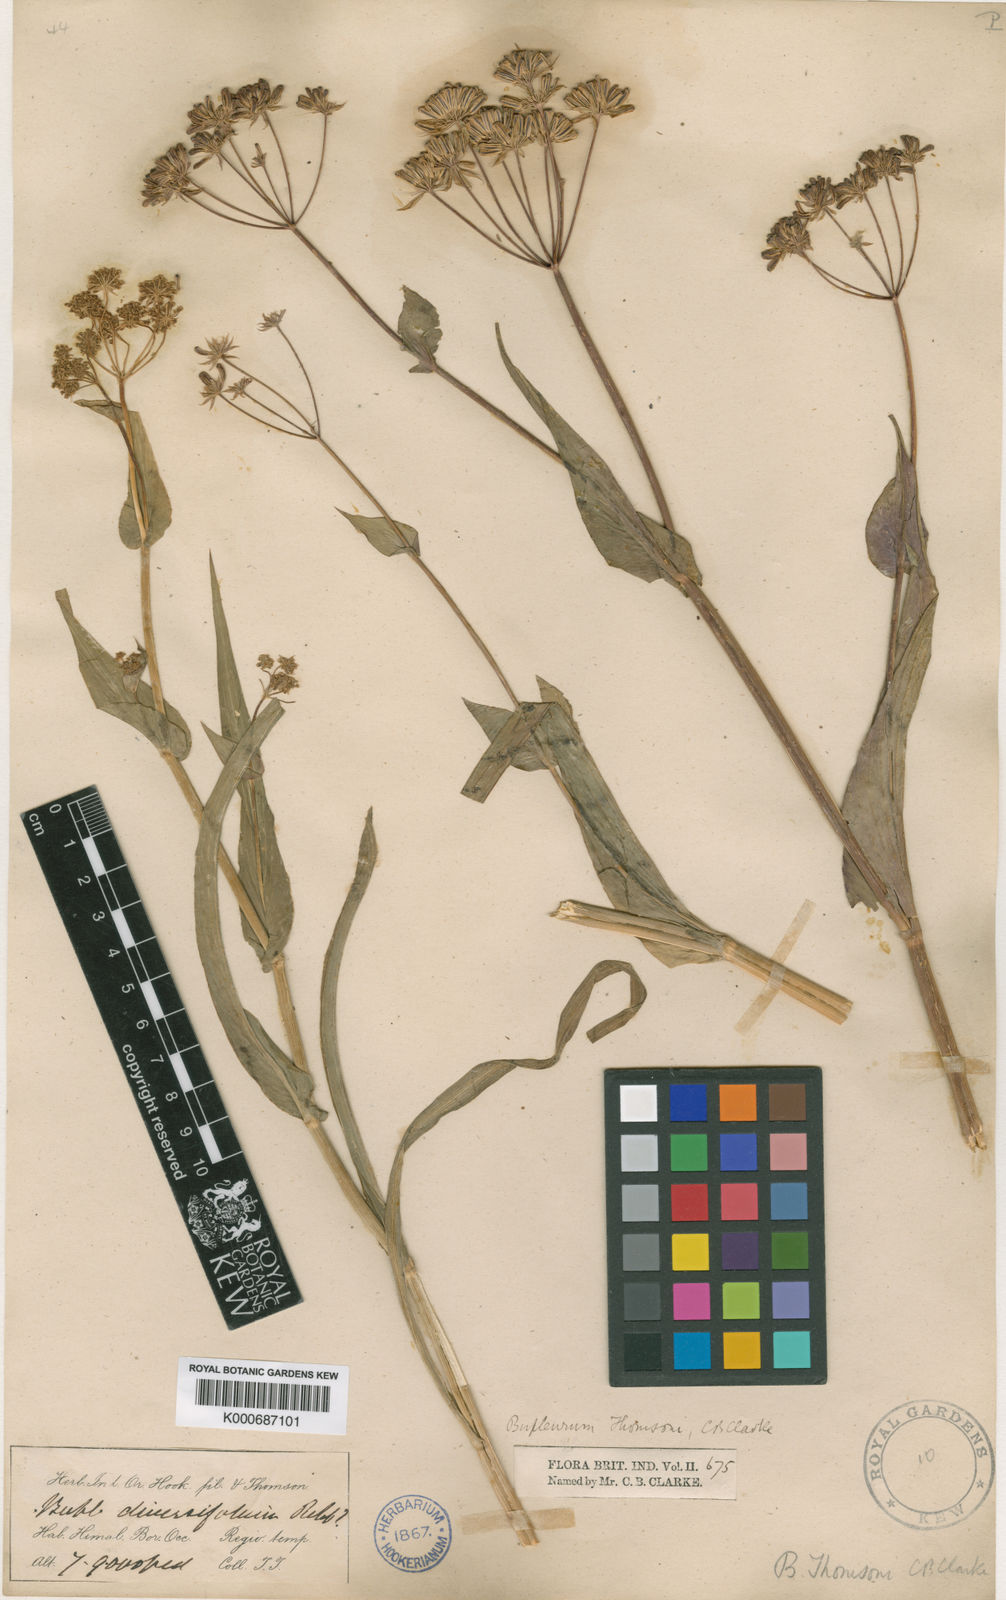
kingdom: Plantae
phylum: Tracheophyta
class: Magnoliopsida
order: Apiales
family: Apiaceae
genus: Bupleurum
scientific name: Bupleurum candollei
